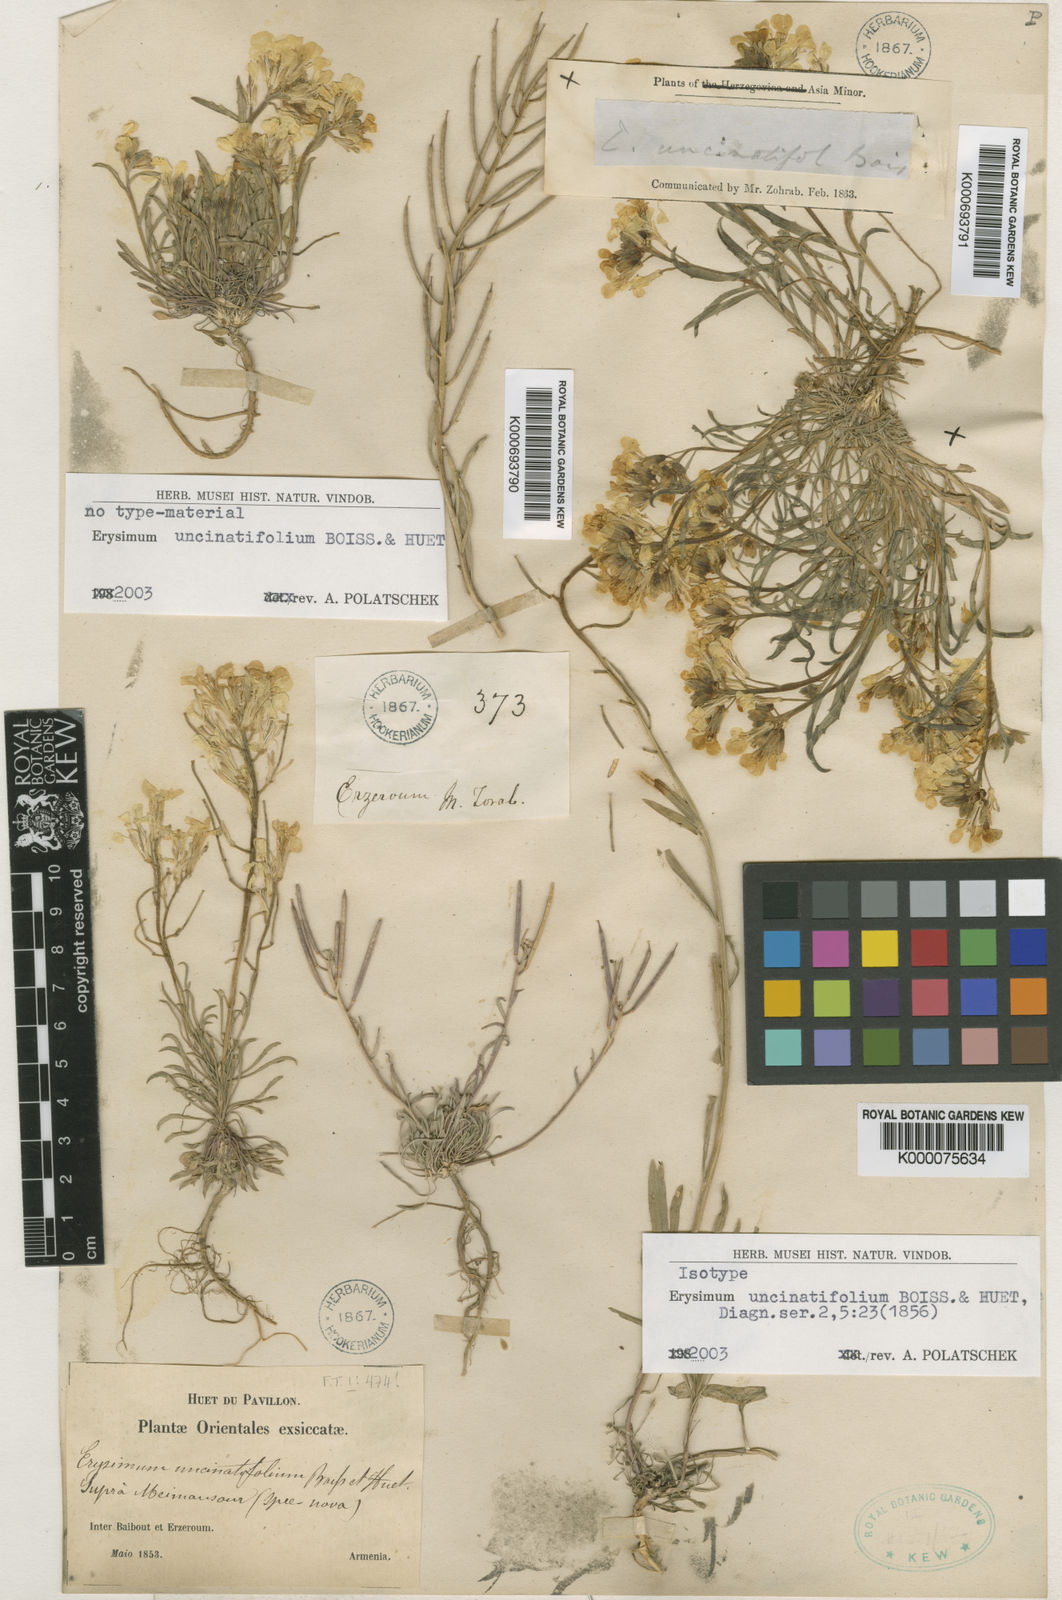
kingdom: Plantae
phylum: Tracheophyta
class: Magnoliopsida
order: Brassicales
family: Brassicaceae
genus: Erysimum
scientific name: Erysimum uncinatifolium
